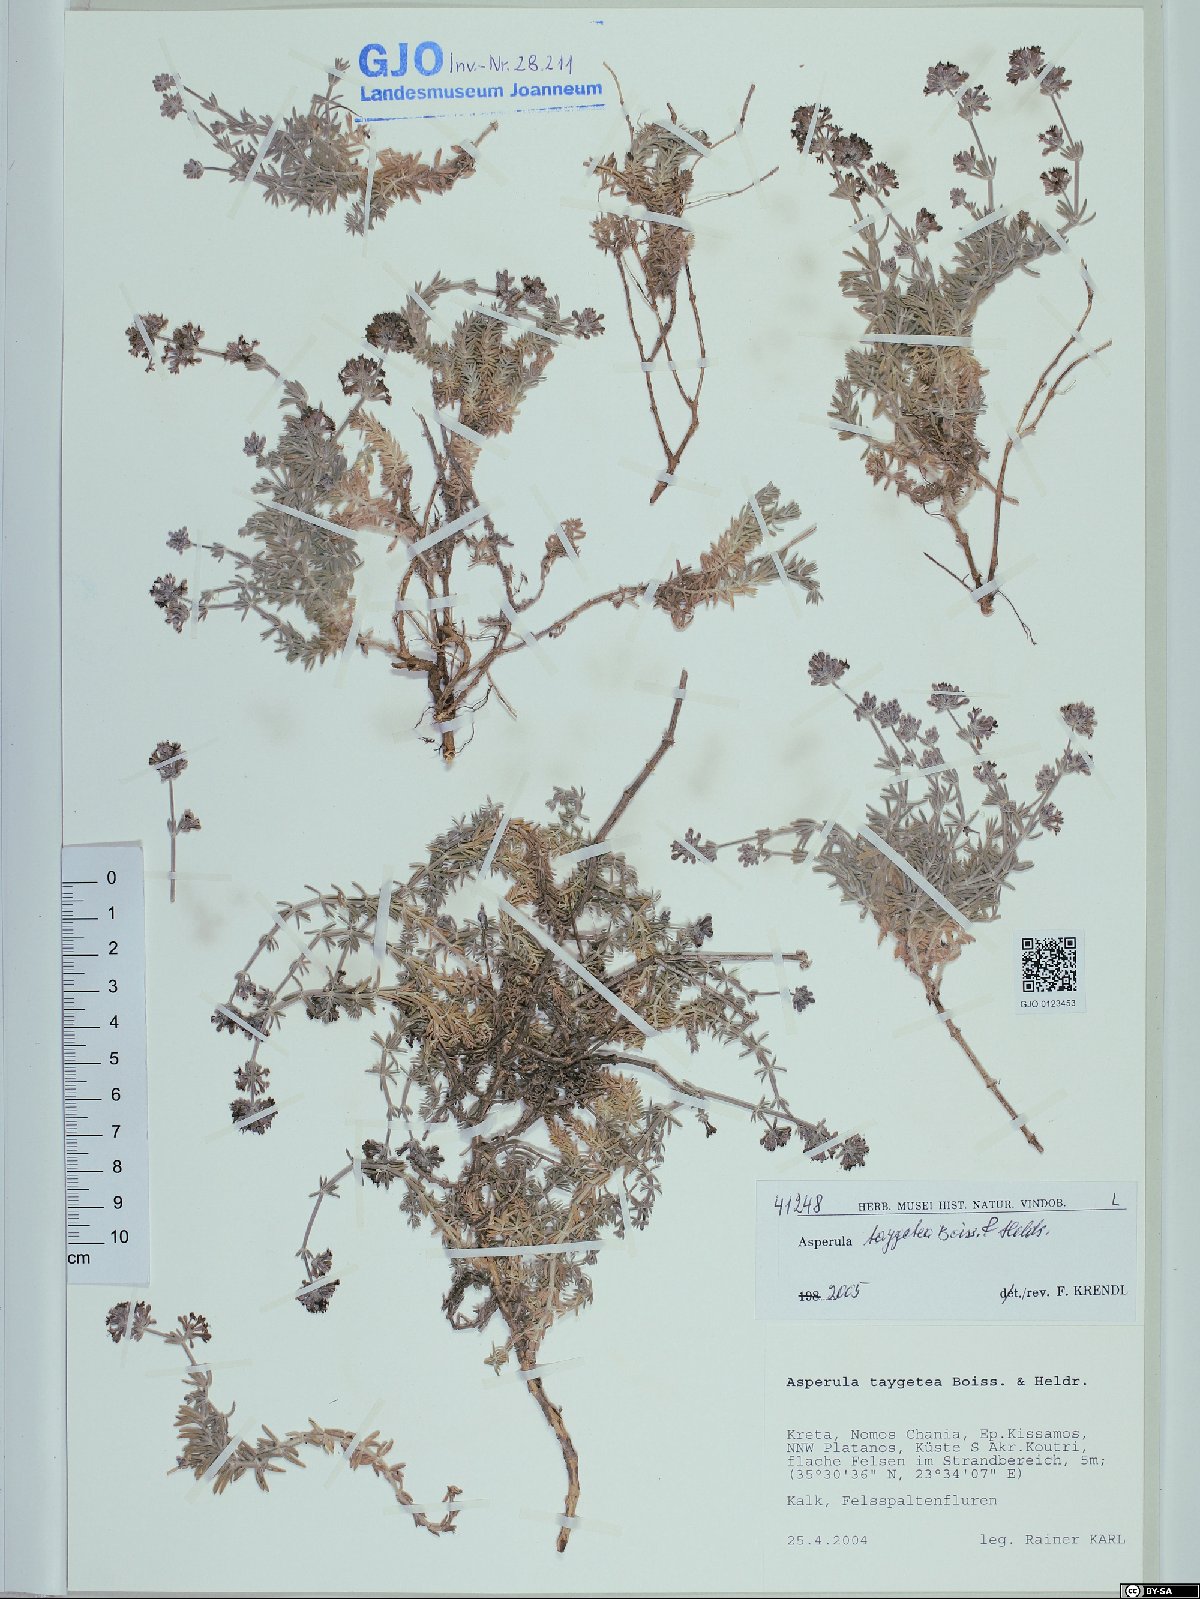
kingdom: Plantae
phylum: Tracheophyta
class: Magnoliopsida
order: Gentianales
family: Rubiaceae
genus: Hexaphylla
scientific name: Hexaphylla taygetea
